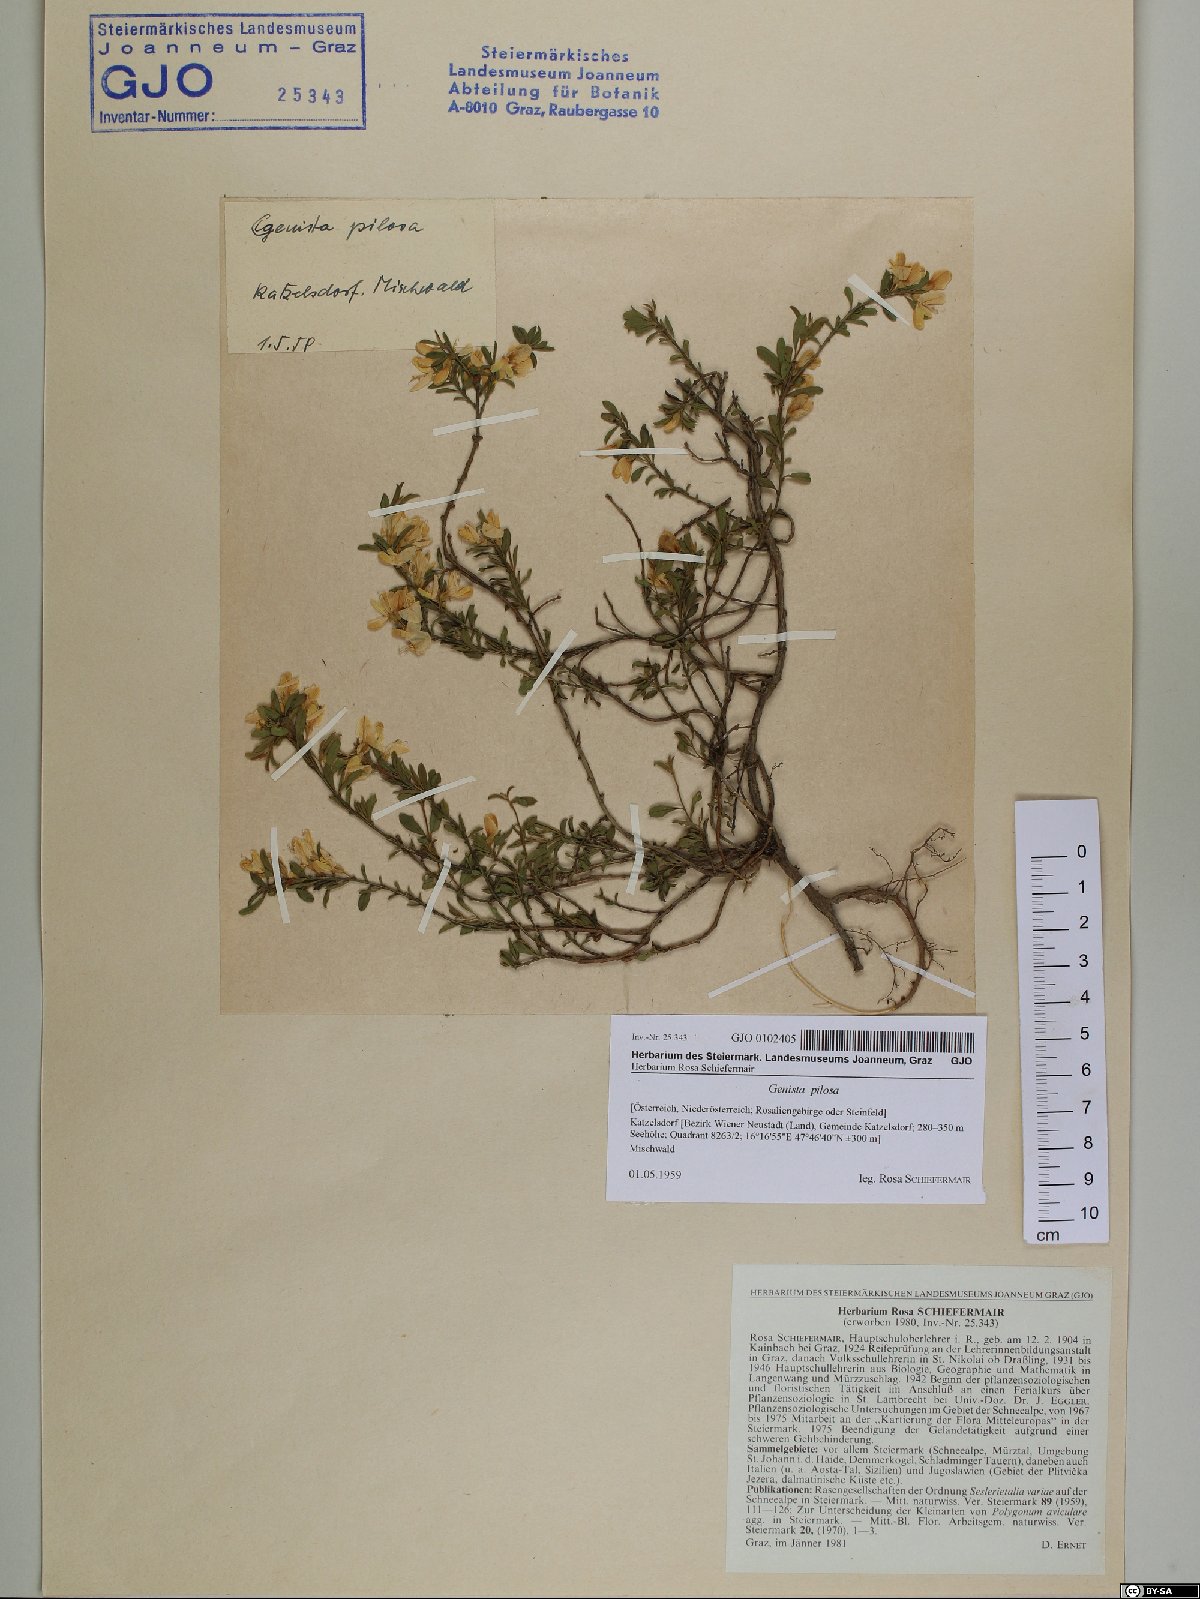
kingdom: Plantae
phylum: Tracheophyta
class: Magnoliopsida
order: Fabales
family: Fabaceae
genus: Genista
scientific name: Genista pilosa
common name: Hairy greenweed
